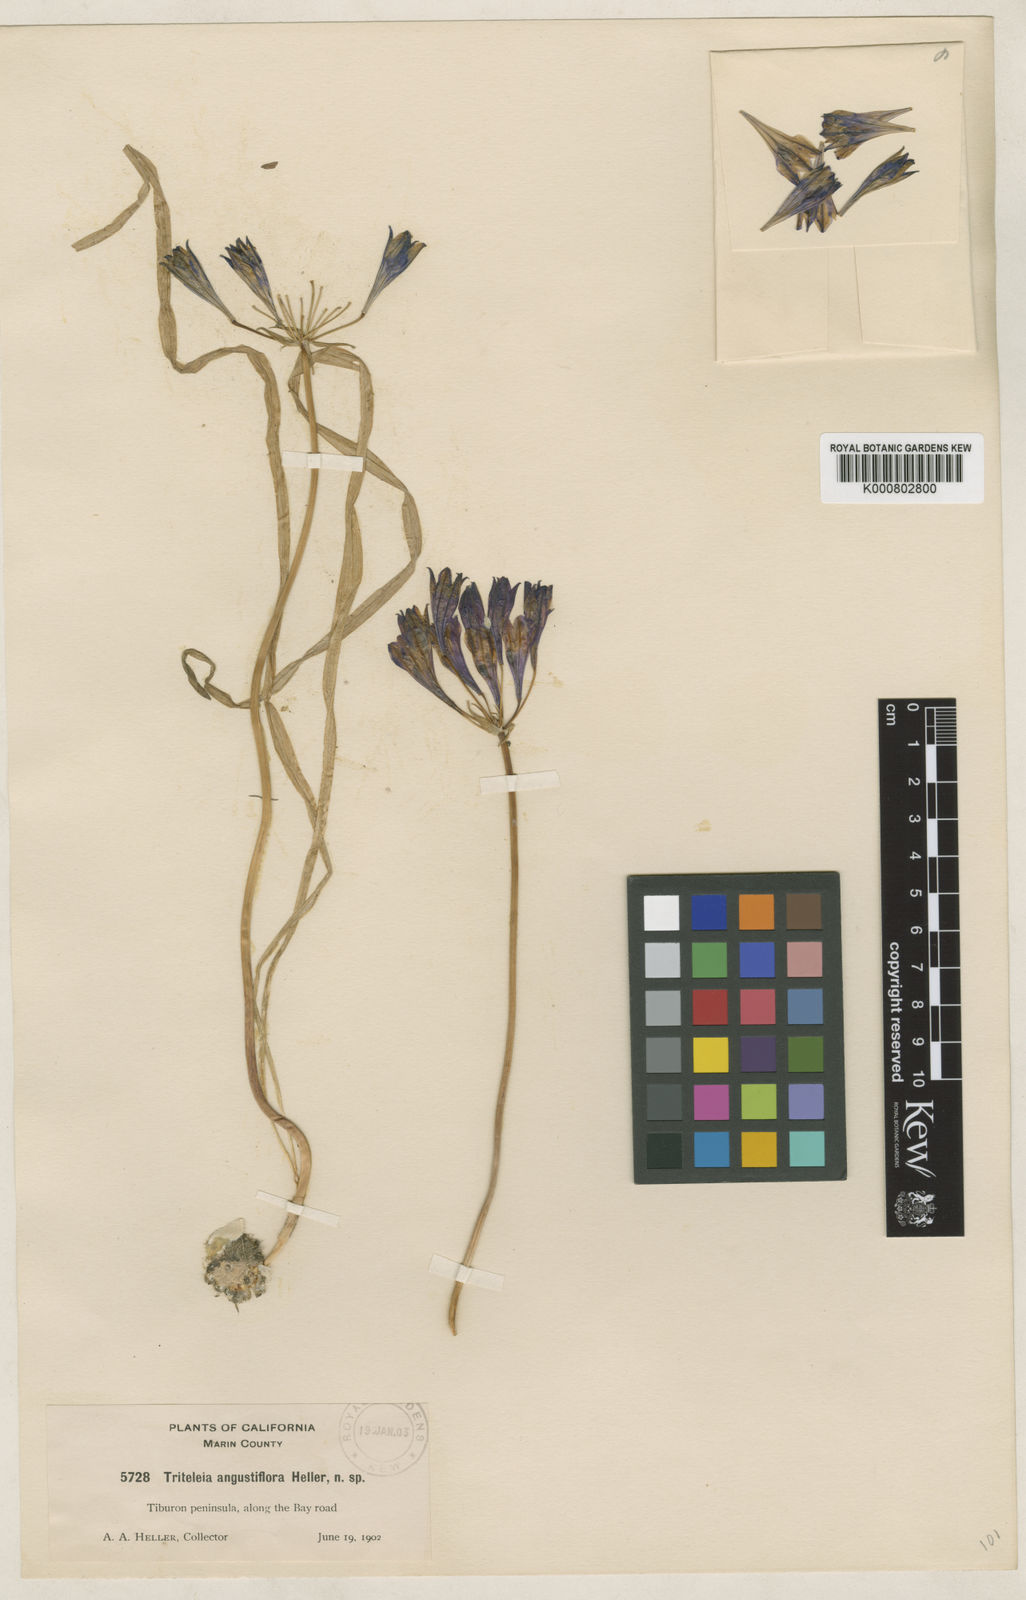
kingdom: Plantae
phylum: Tracheophyta
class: Liliopsida
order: Asparagales
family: Asparagaceae
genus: Triteleia
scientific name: Triteleia laxa
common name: Triplet-lily
